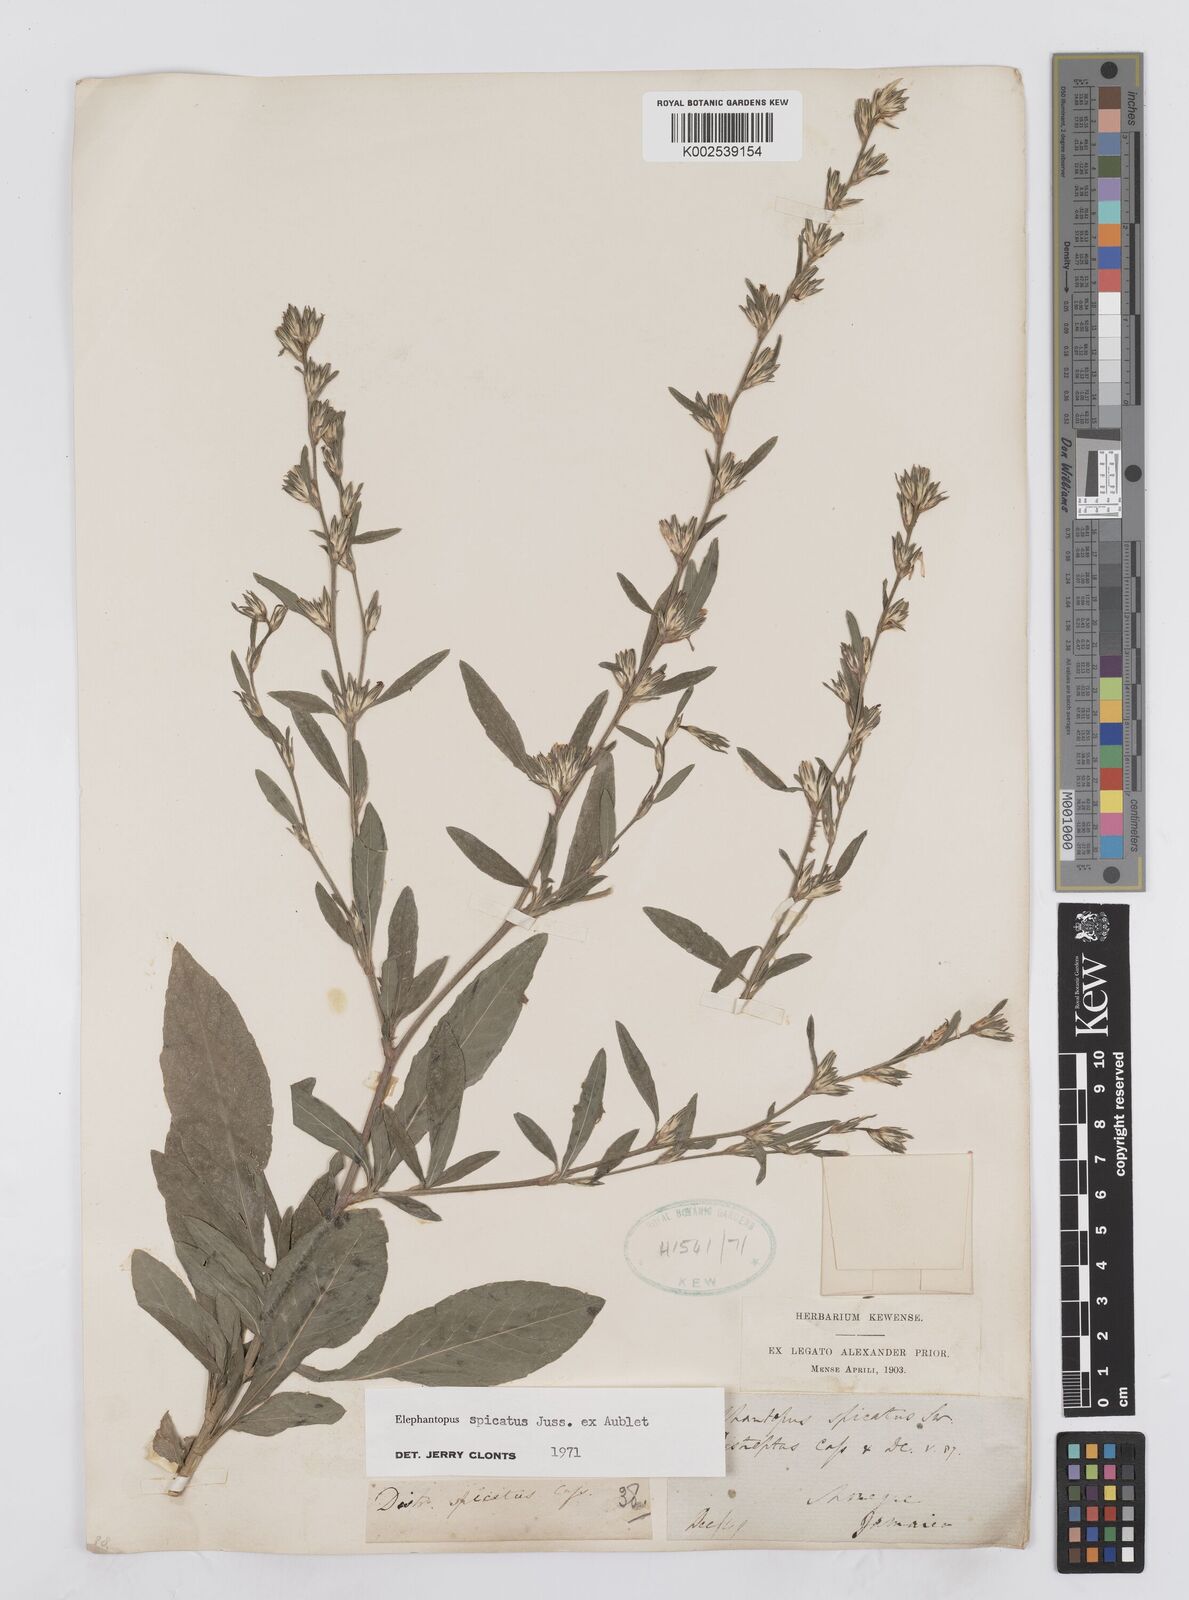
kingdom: Plantae
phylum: Tracheophyta
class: Magnoliopsida
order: Asterales
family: Asteraceae
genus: Pseudelephantopus
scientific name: Pseudelephantopus spicatus
